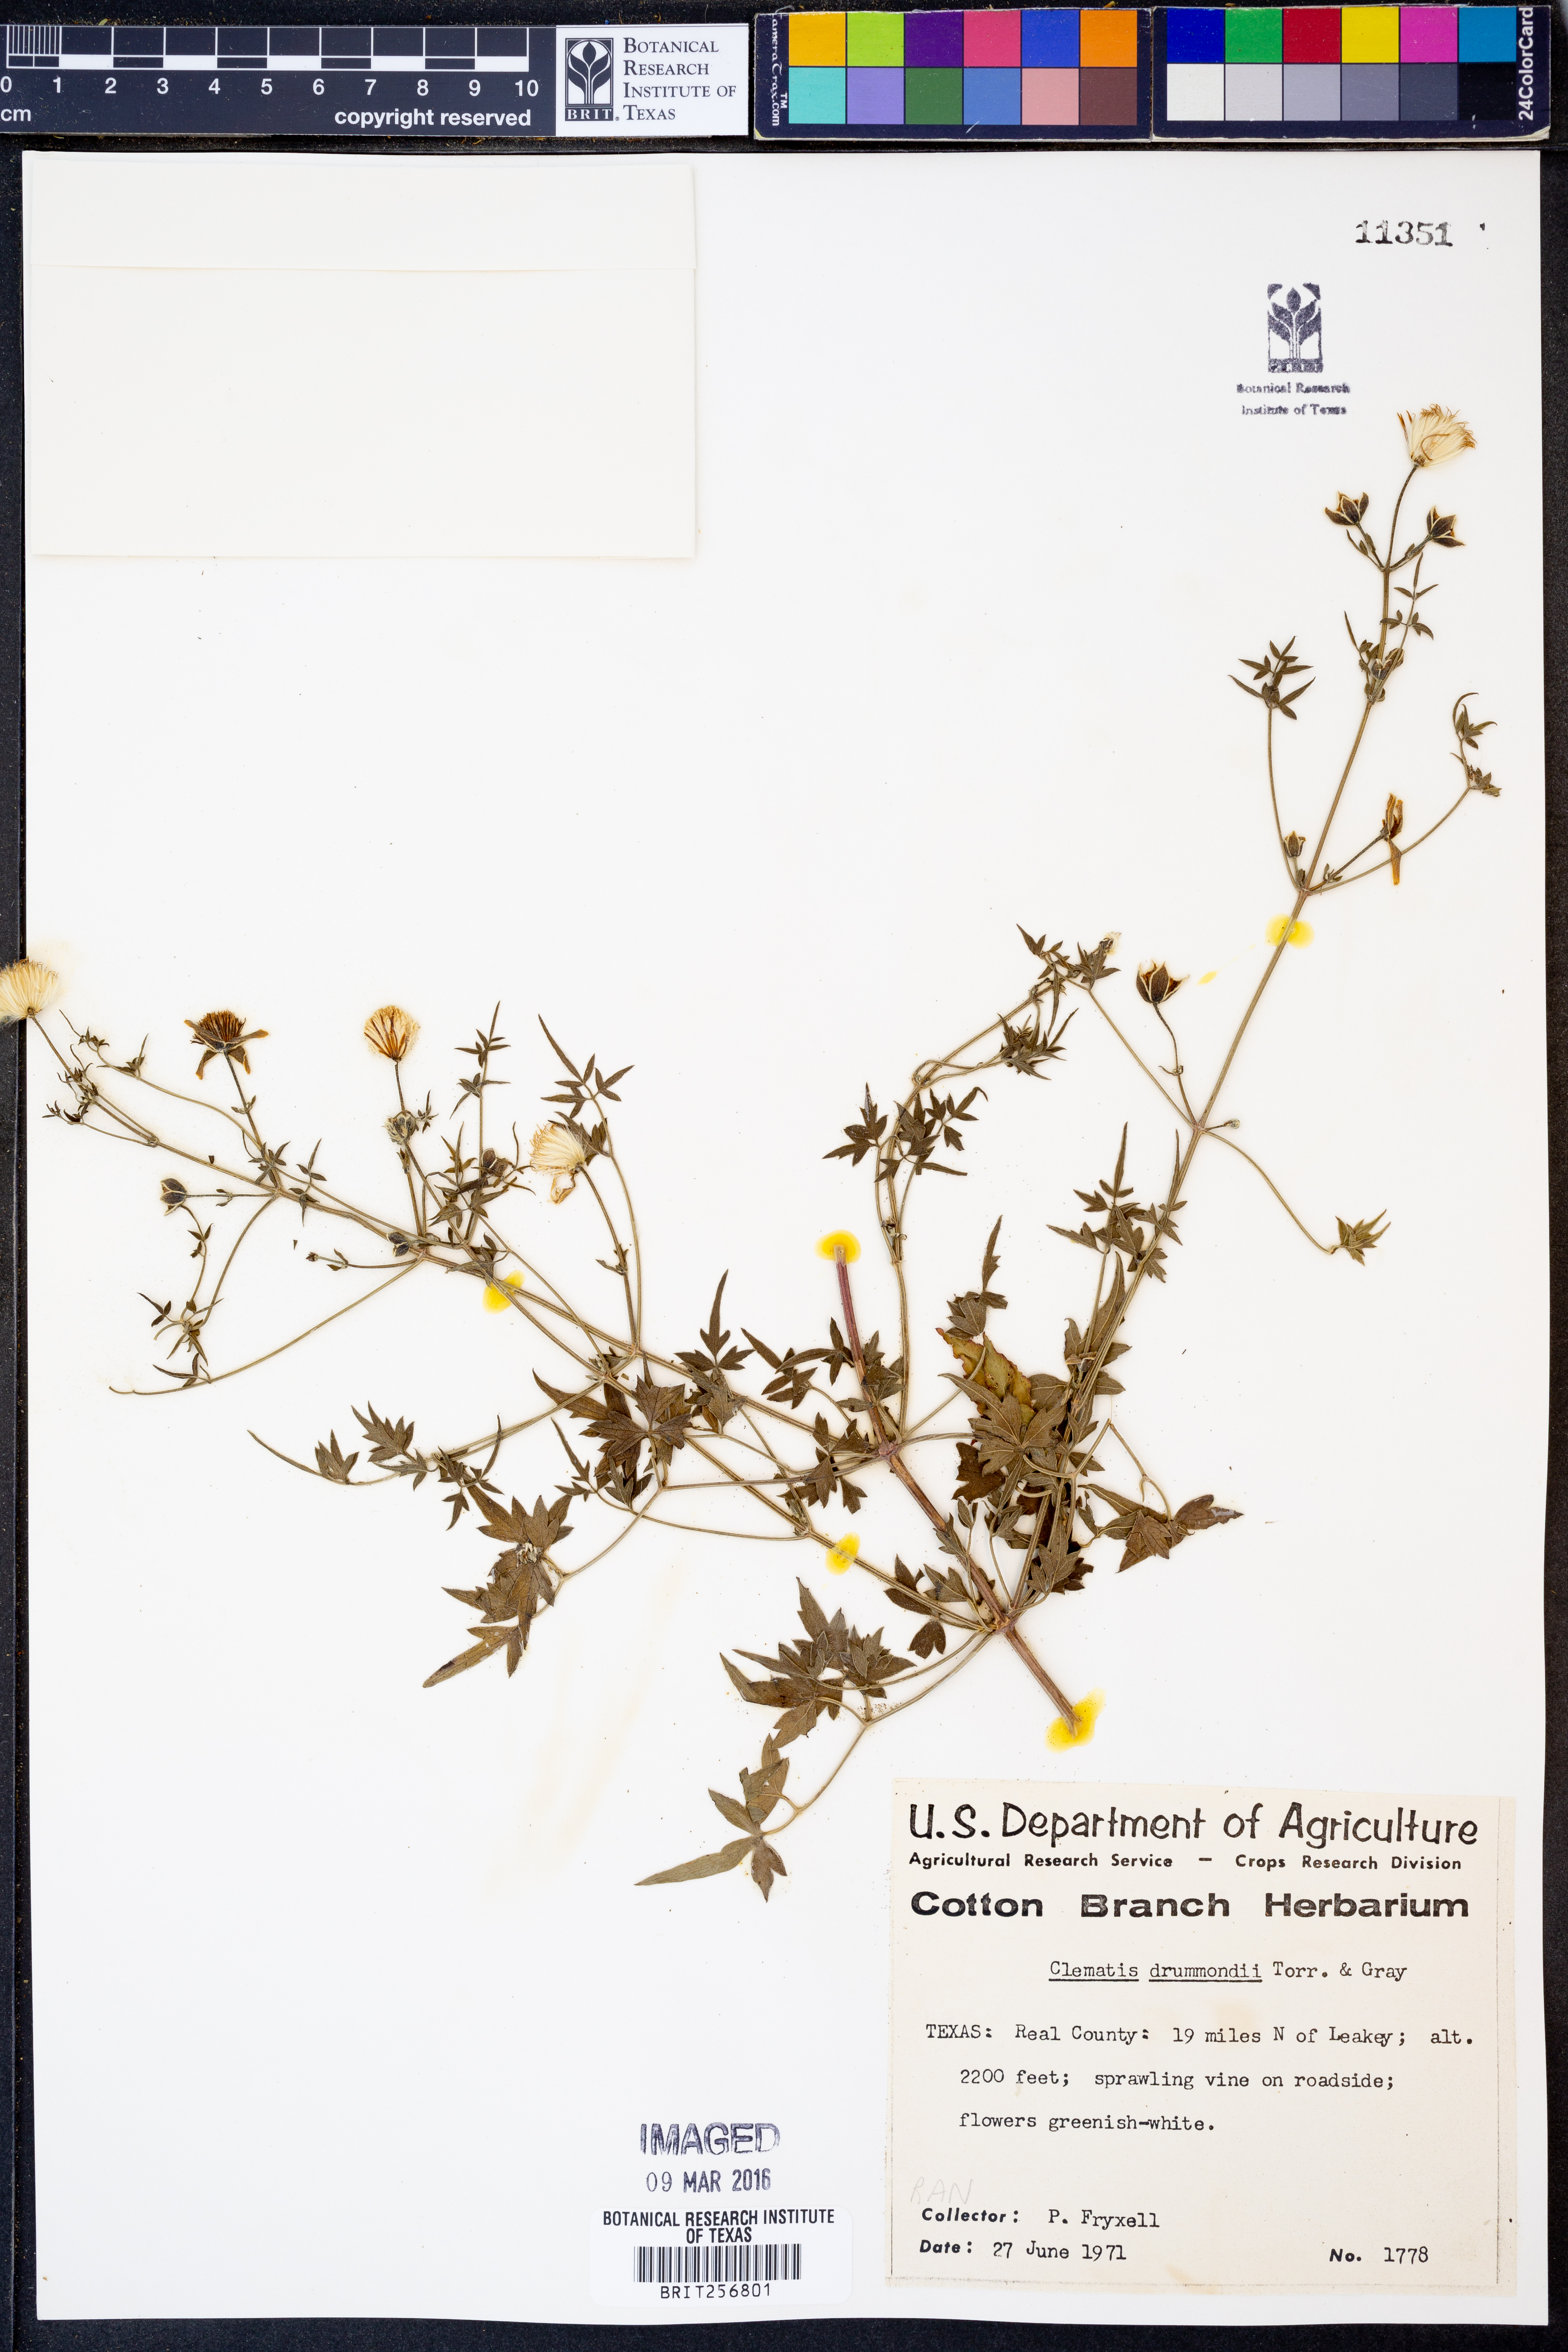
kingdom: Plantae
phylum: Tracheophyta
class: Magnoliopsida
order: Ranunculales
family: Ranunculaceae
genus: Clematis
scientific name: Clematis drummondii
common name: Texas virgin's bower
